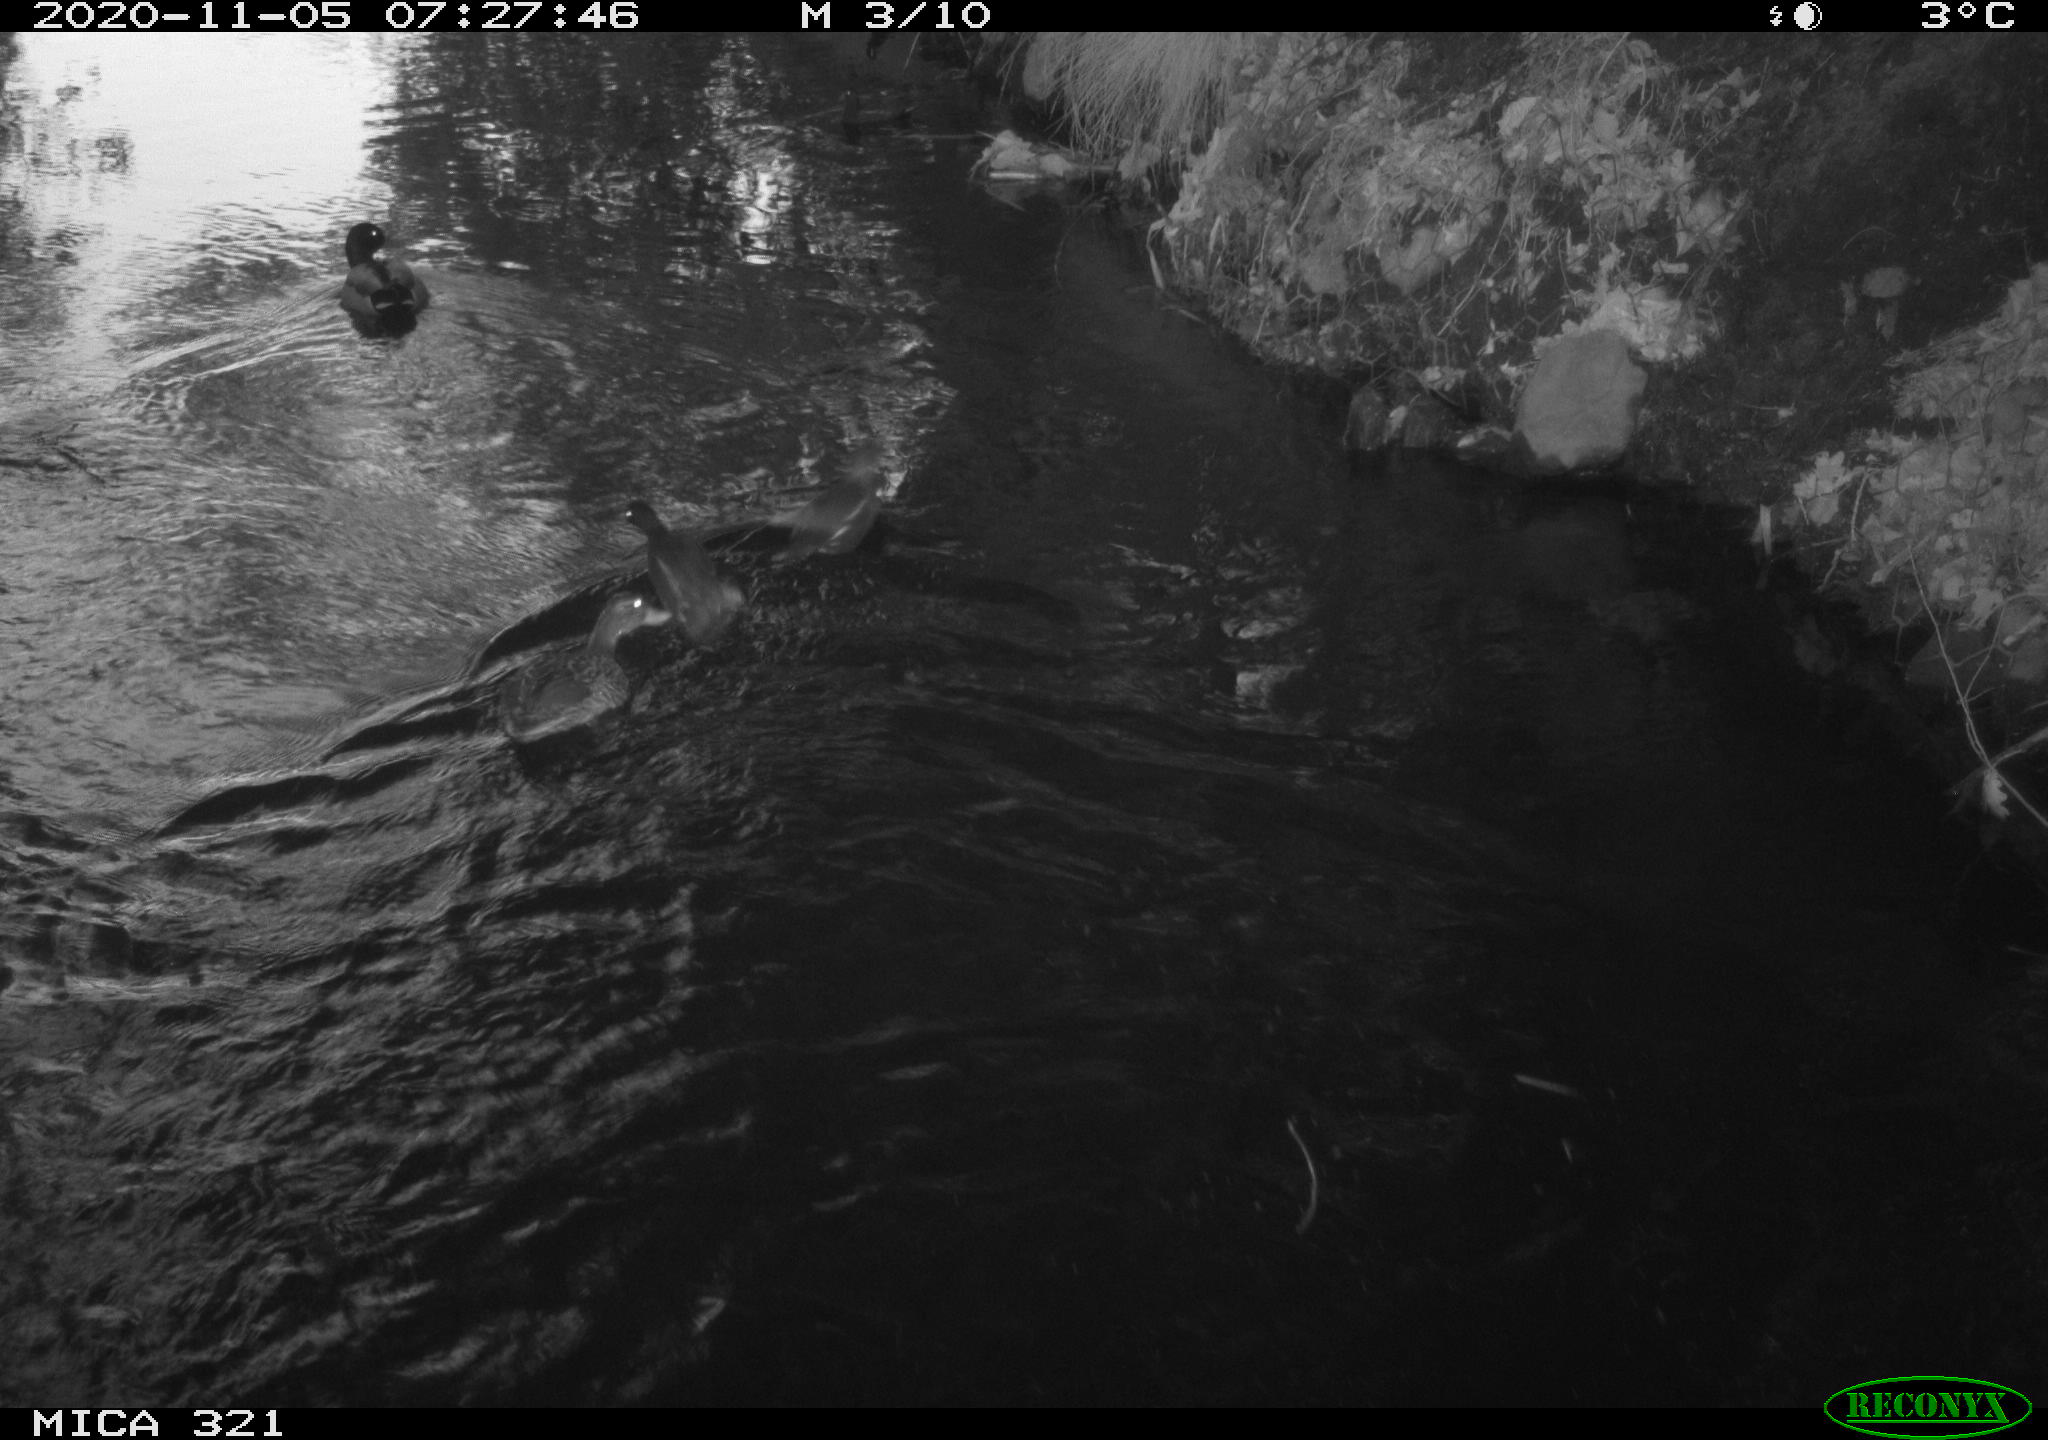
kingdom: Animalia
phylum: Chordata
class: Aves
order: Gruiformes
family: Rallidae
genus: Fulica
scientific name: Fulica atra
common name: Eurasian coot
